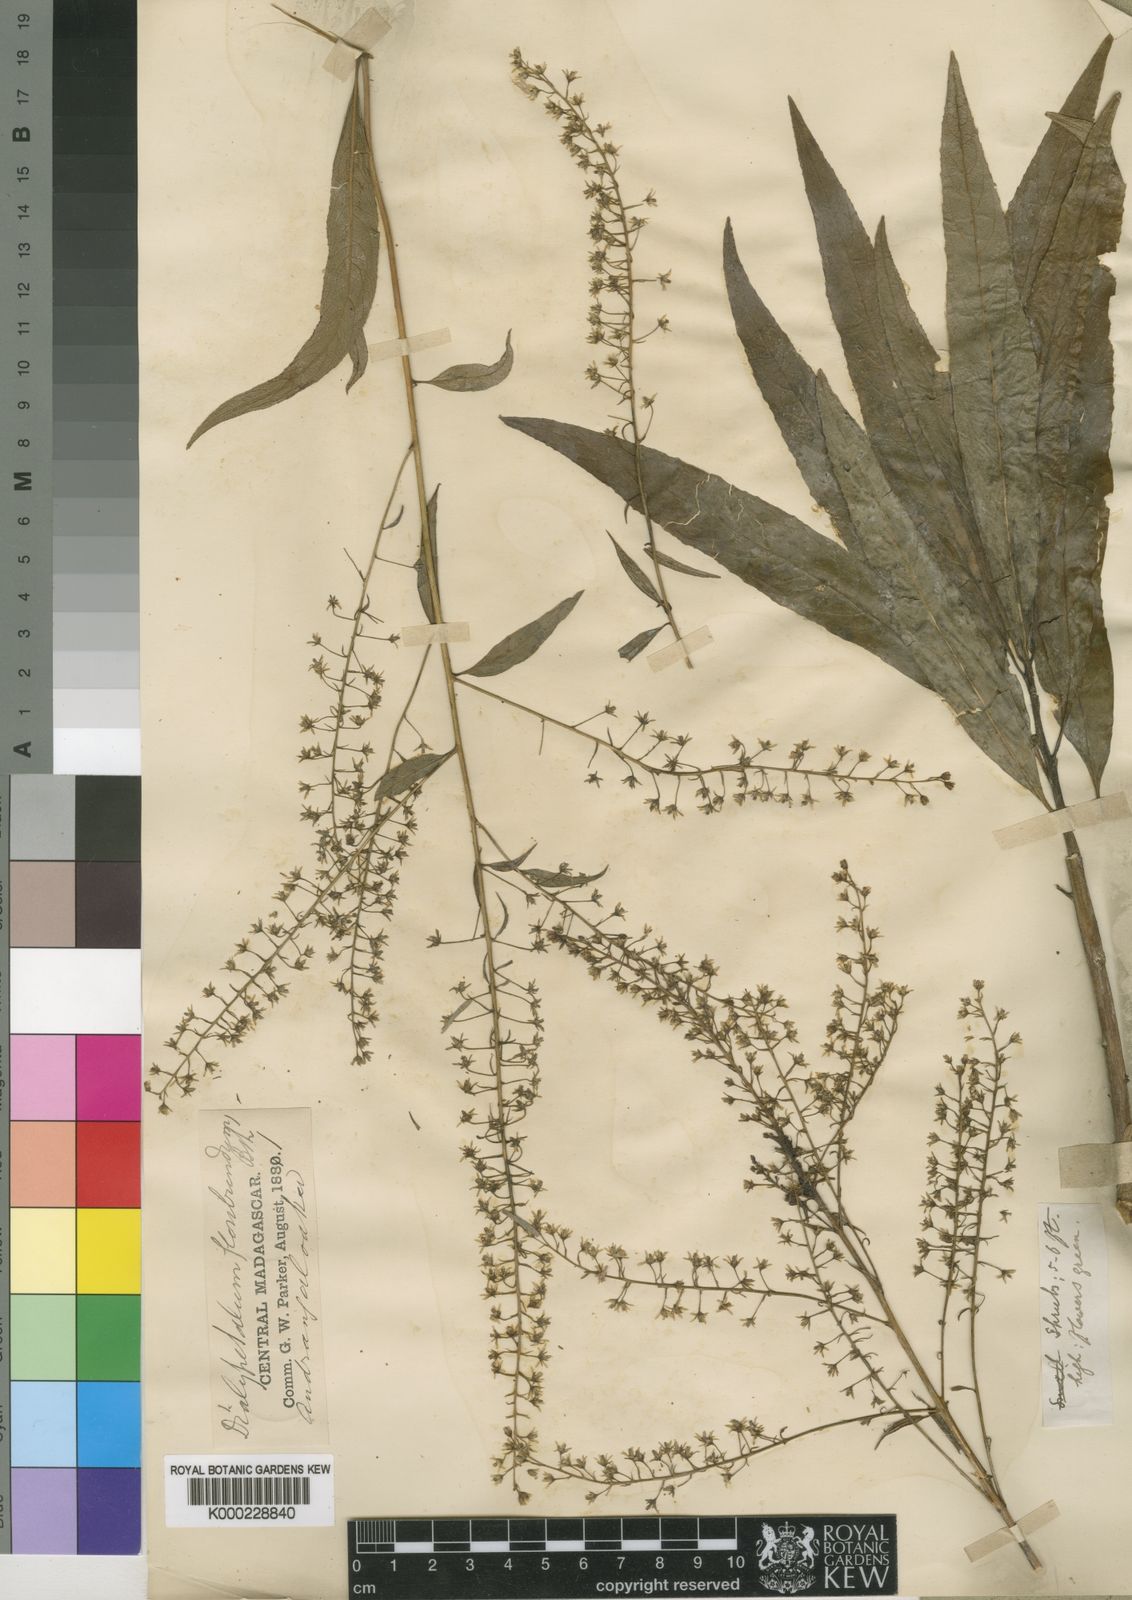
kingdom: Plantae
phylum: Tracheophyta
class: Magnoliopsida
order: Asterales
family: Campanulaceae
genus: Dialypetalum
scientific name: Dialypetalum floribundum
